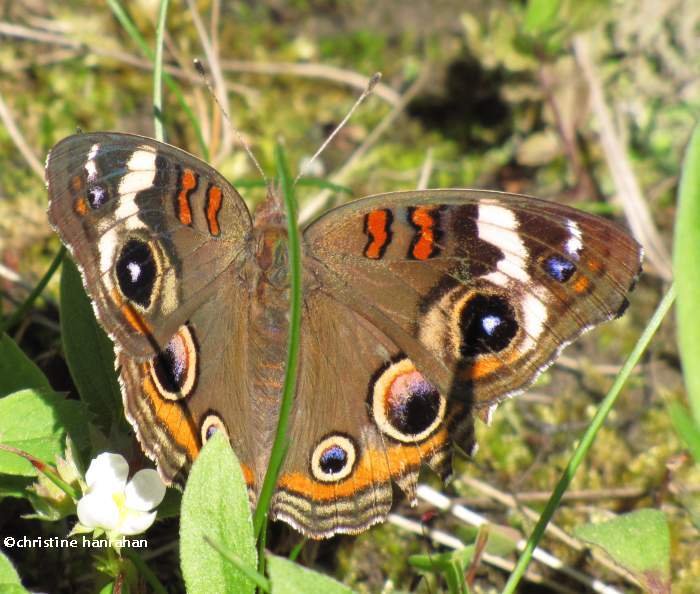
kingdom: Animalia
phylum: Arthropoda
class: Insecta
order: Lepidoptera
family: Nymphalidae
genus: Junonia
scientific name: Junonia coenia
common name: Common Buckeye
